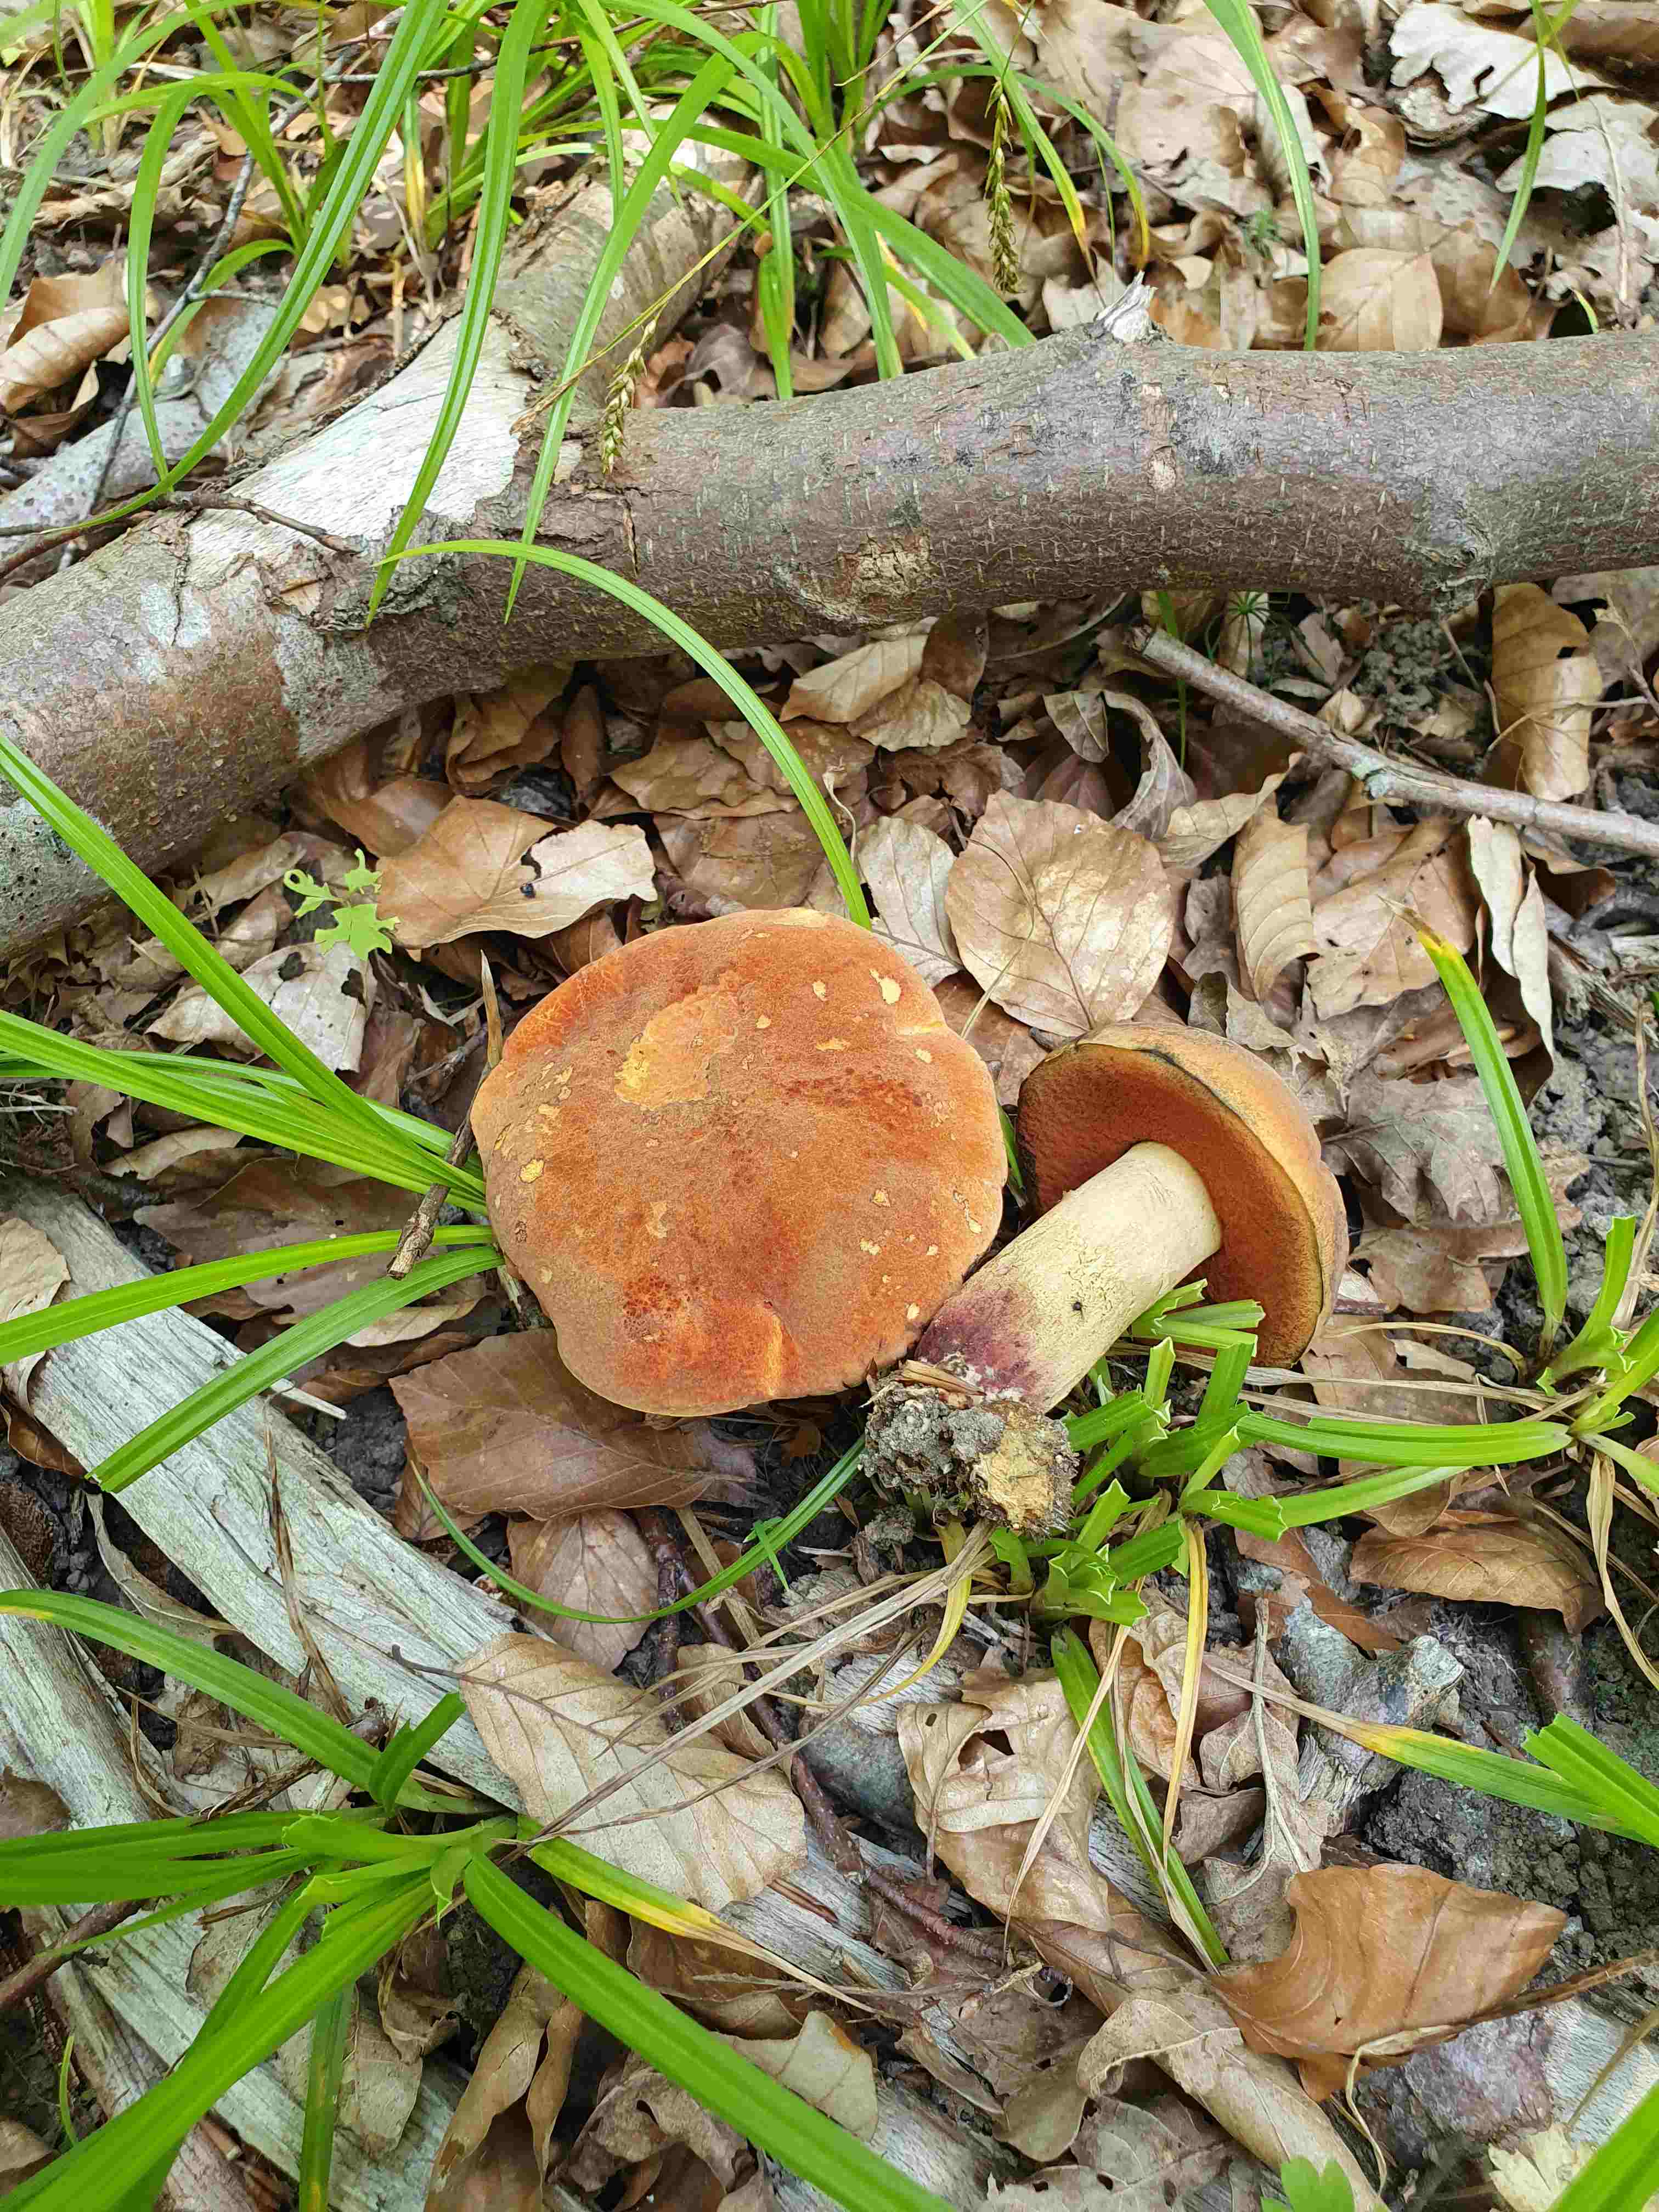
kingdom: Fungi
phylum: Basidiomycota
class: Agaricomycetes
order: Boletales
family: Boletaceae
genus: Suillellus
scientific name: Suillellus queletii
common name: glatstokket indigorørhat
